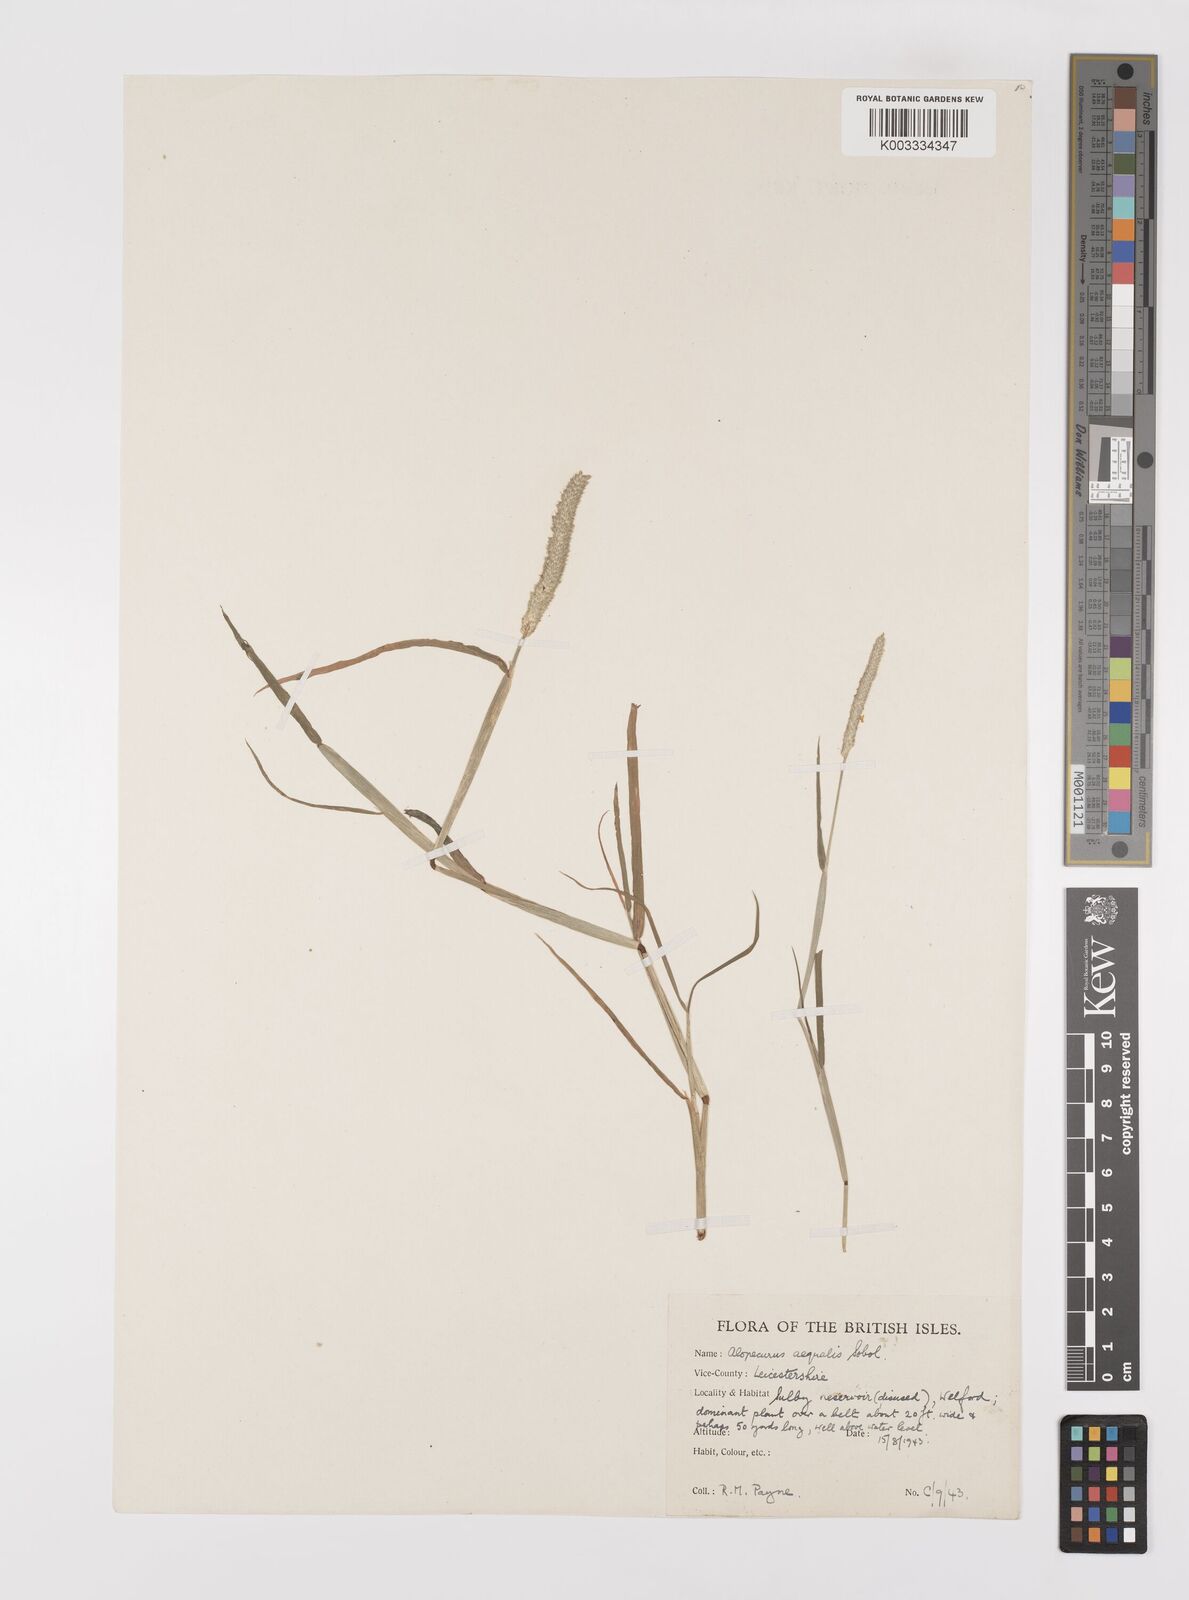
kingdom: Plantae
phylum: Tracheophyta
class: Liliopsida
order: Poales
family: Poaceae
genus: Alopecurus
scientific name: Alopecurus aequalis
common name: Orange foxtail
